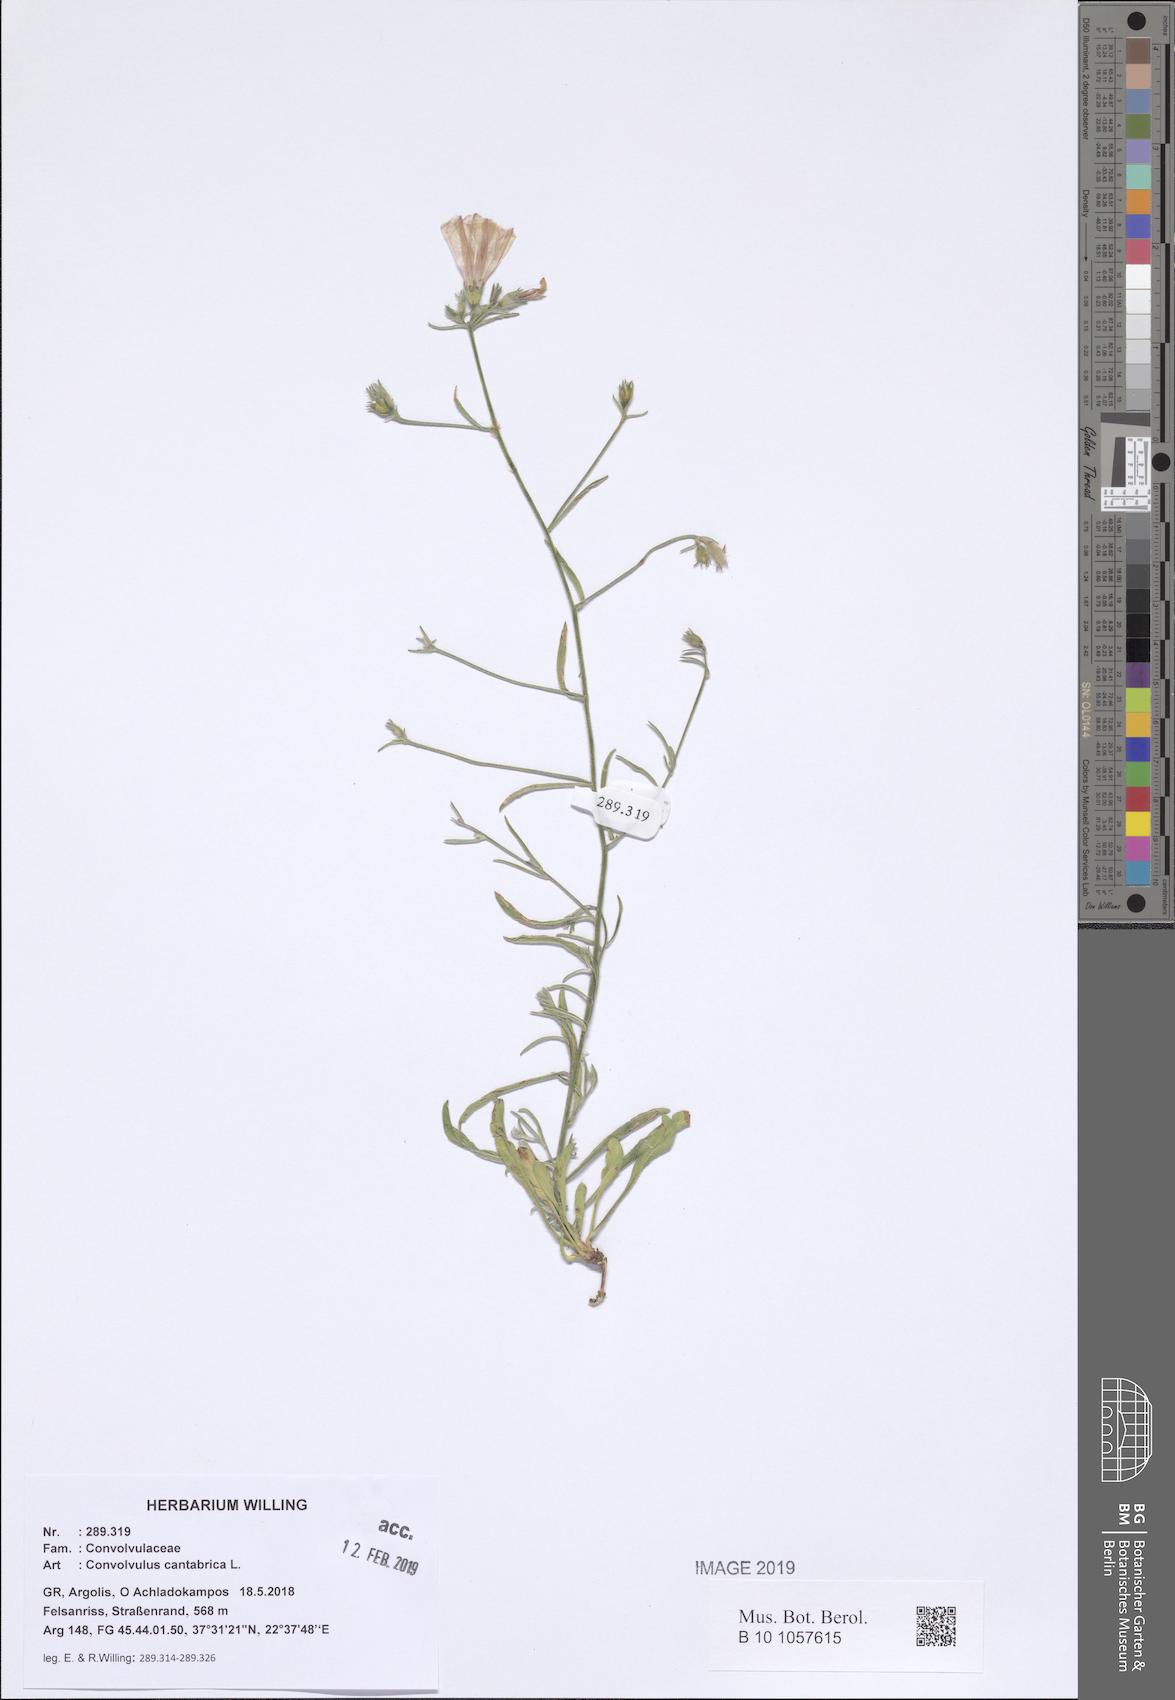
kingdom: Plantae
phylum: Tracheophyta
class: Magnoliopsida
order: Solanales
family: Convolvulaceae
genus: Convolvulus
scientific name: Convolvulus cantabrica
